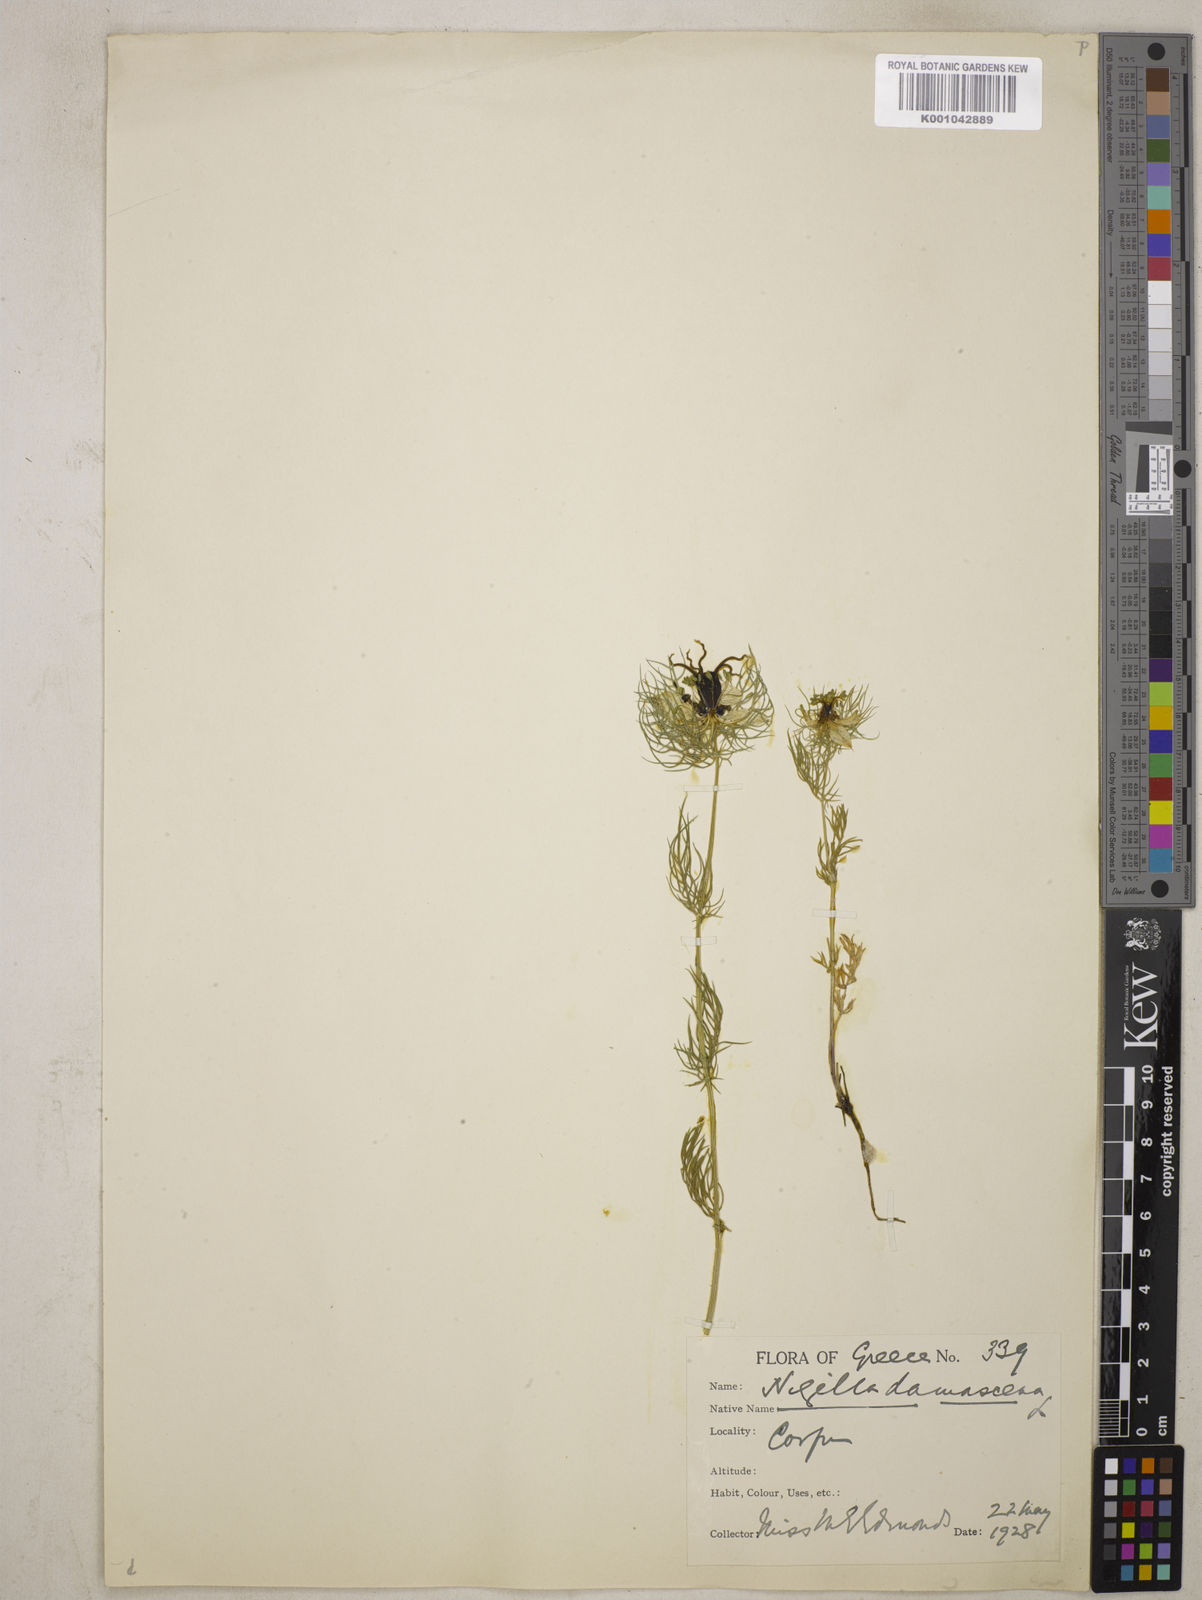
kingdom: Plantae
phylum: Tracheophyta
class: Magnoliopsida
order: Ranunculales
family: Ranunculaceae
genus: Nigella
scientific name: Nigella damascena
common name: Love-in-a-mist
